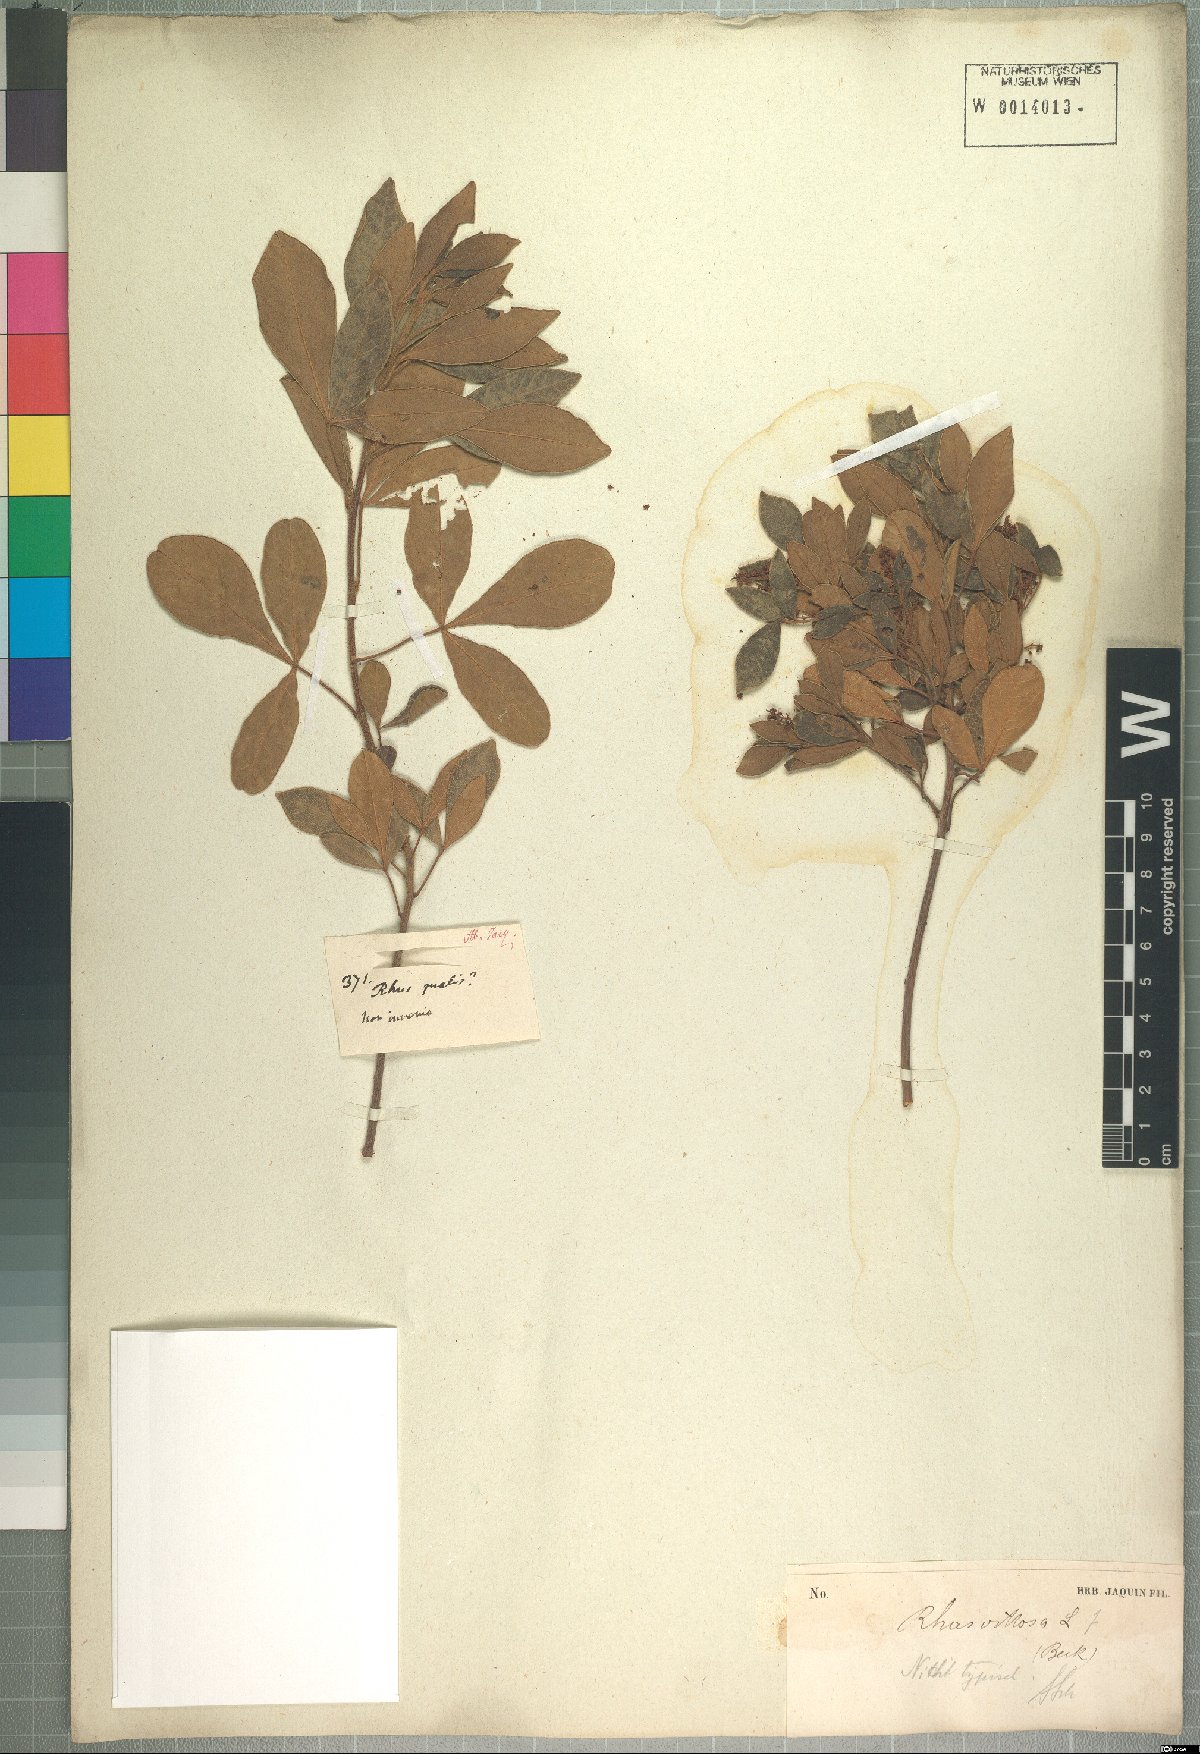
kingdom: Plantae
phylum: Tracheophyta
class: Magnoliopsida
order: Sapindales
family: Anacardiaceae
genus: Searsia
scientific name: Searsia laevigata
